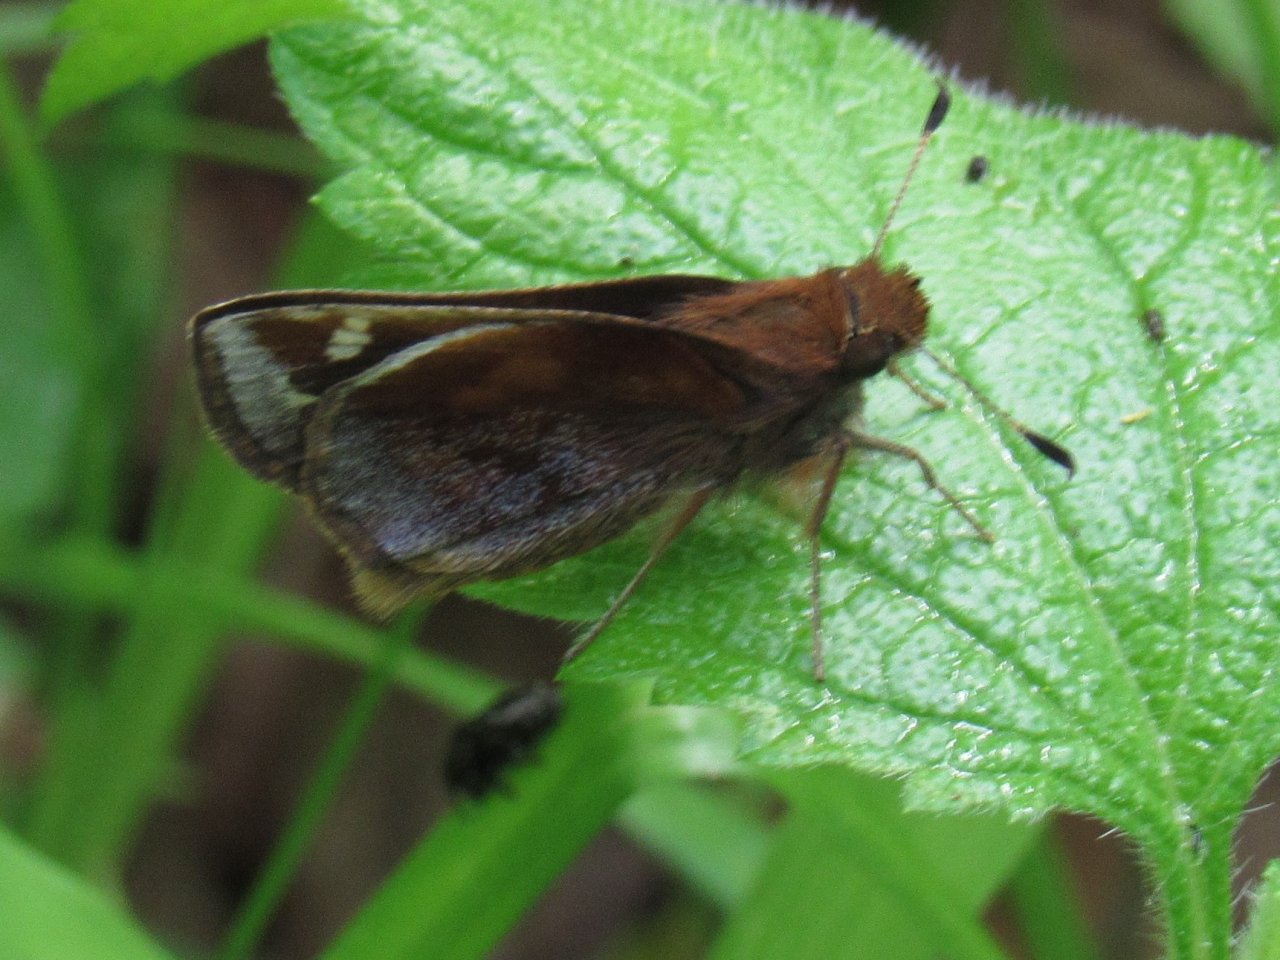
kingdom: Animalia
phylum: Arthropoda
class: Insecta
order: Lepidoptera
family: Hesperiidae
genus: Lon
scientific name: Lon zabulon
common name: Zabulon Skipper
